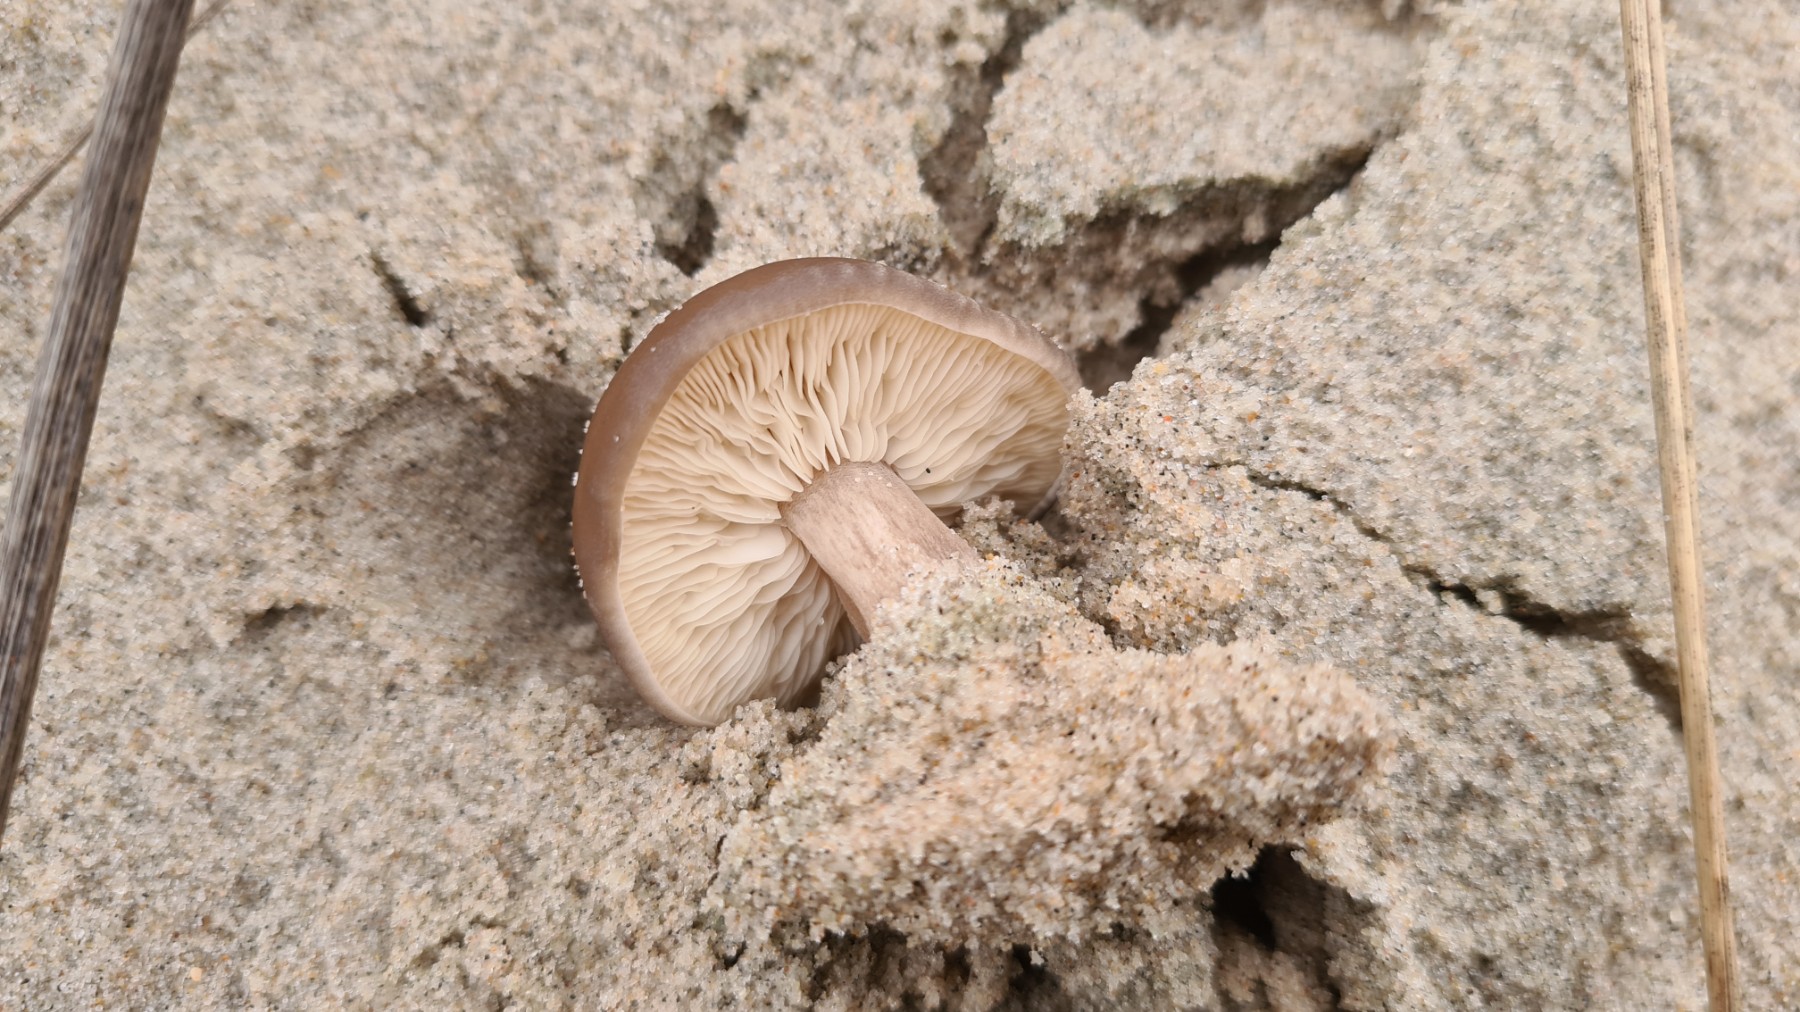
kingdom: Fungi
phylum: Basidiomycota
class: Agaricomycetes
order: Agaricales
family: Tricholomataceae
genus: Melanoleuca
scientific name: Melanoleuca
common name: munkehat
